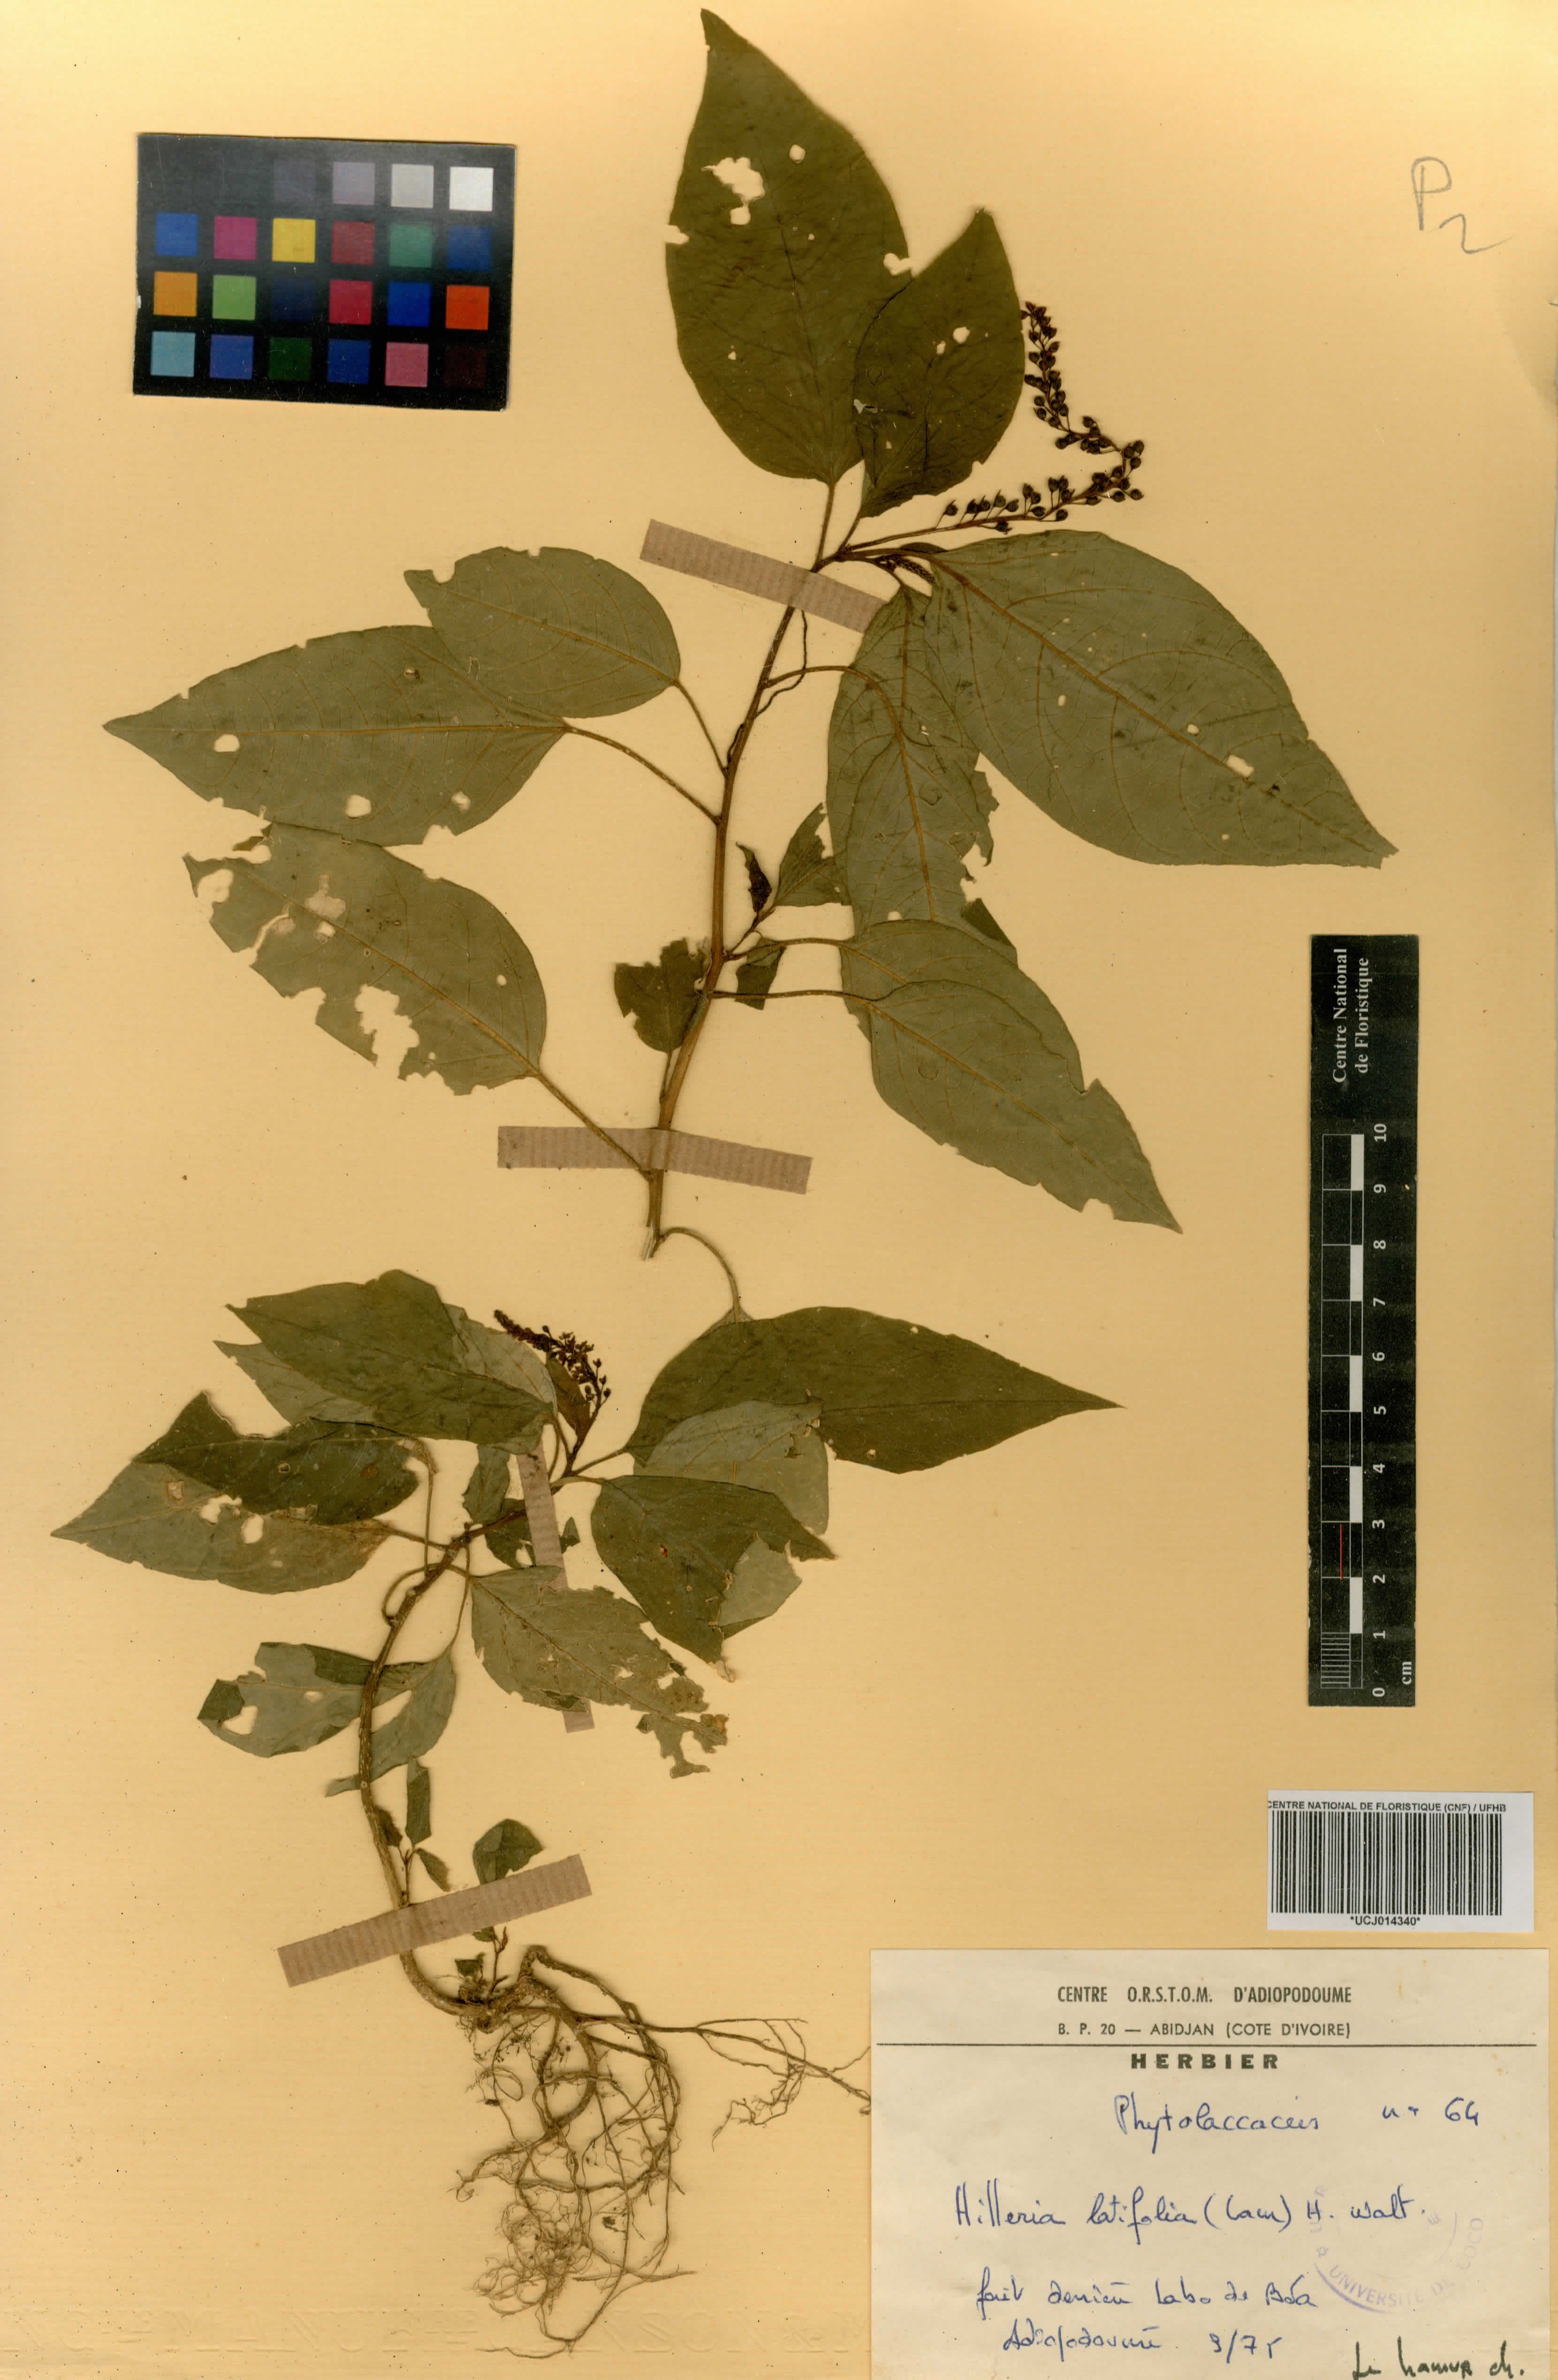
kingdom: Plantae
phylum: Tracheophyta
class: Magnoliopsida
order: Caryophyllales
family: Phytolaccaceae
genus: Hilleria
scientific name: Hilleria latifolia
